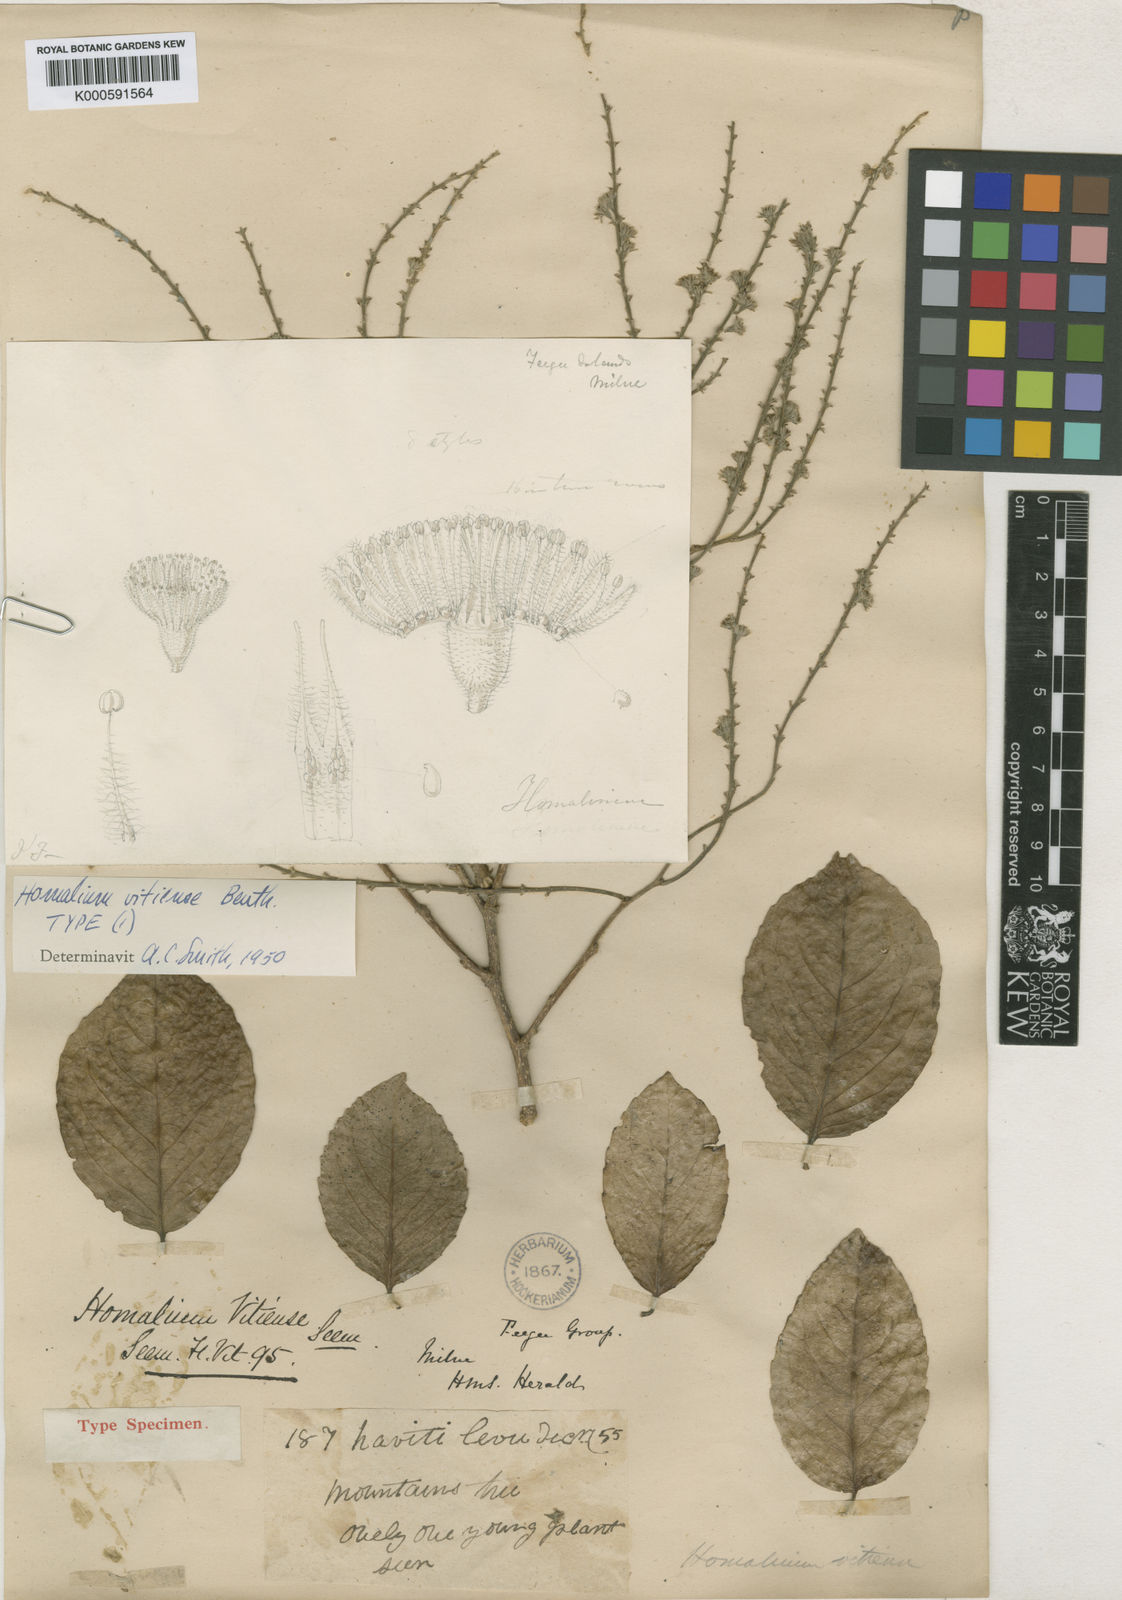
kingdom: Plantae
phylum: Tracheophyta
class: Magnoliopsida
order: Malpighiales
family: Salicaceae
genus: Homalium
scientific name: Homalium vitiense
